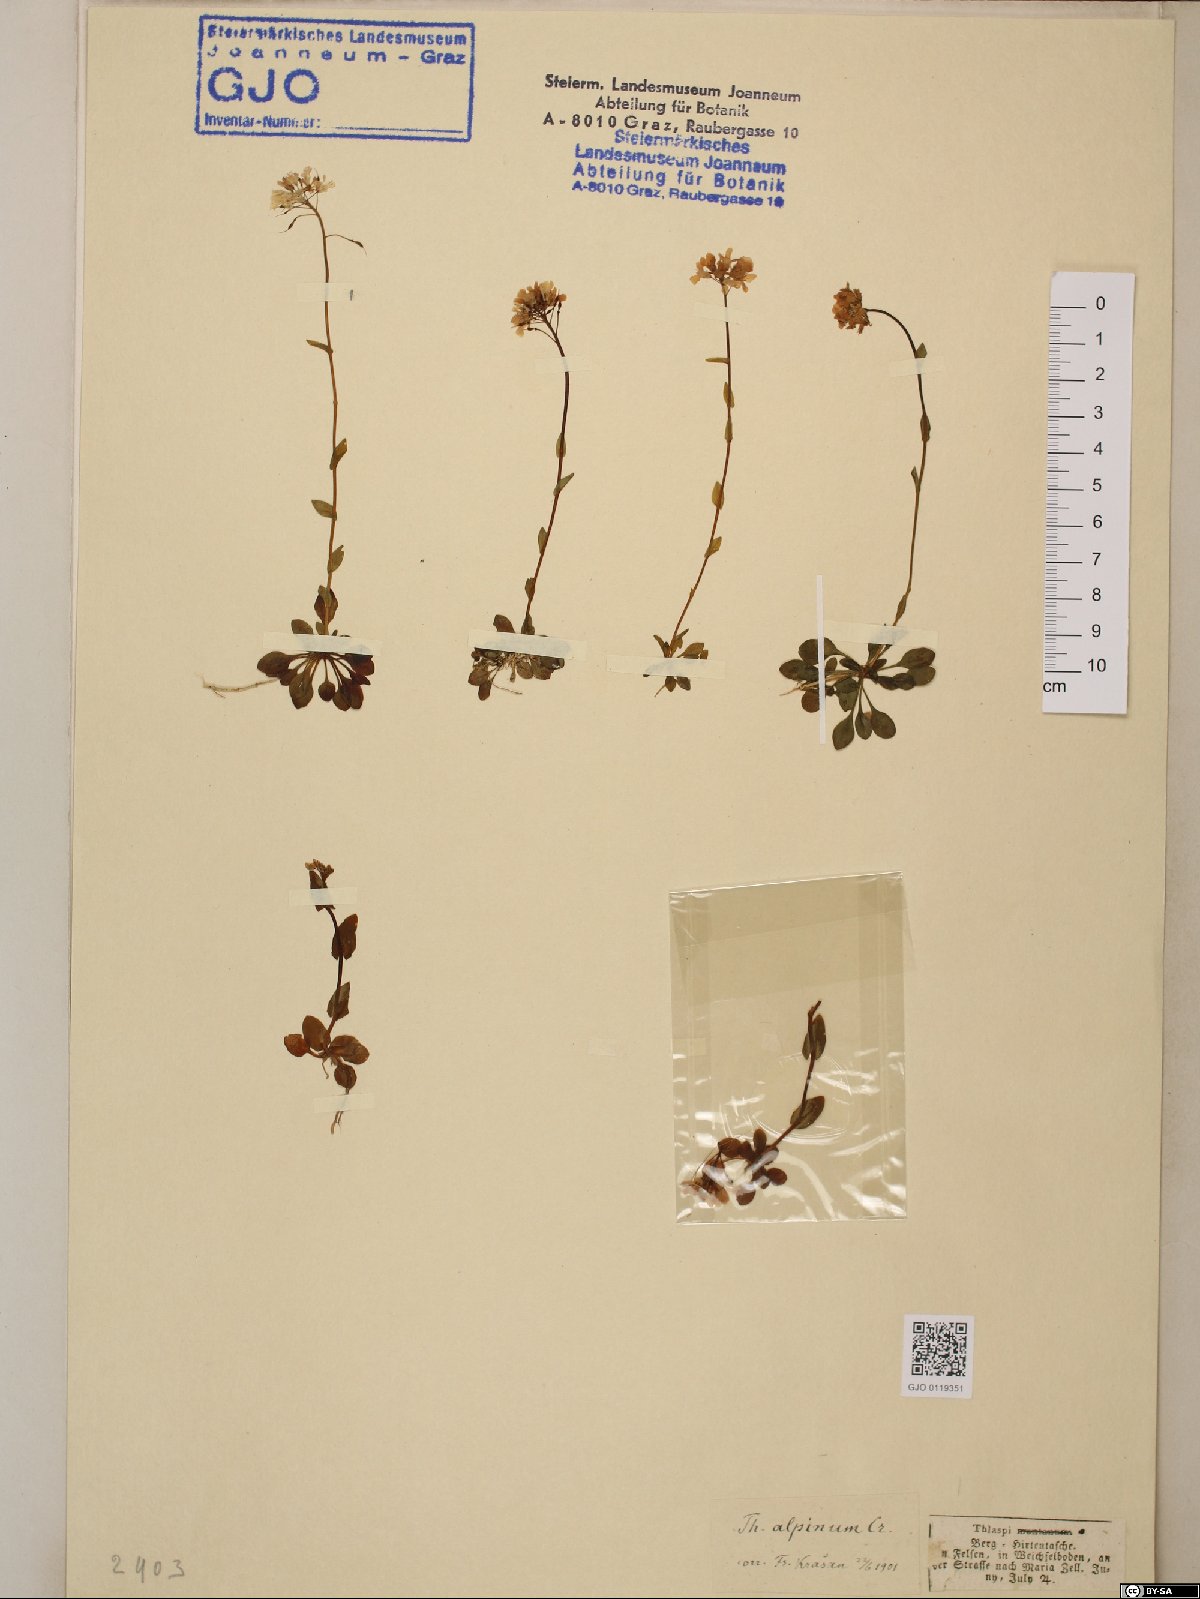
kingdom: Plantae
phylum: Tracheophyta
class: Magnoliopsida
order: Brassicales
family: Brassicaceae
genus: Noccaea
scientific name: Noccaea alpestris
